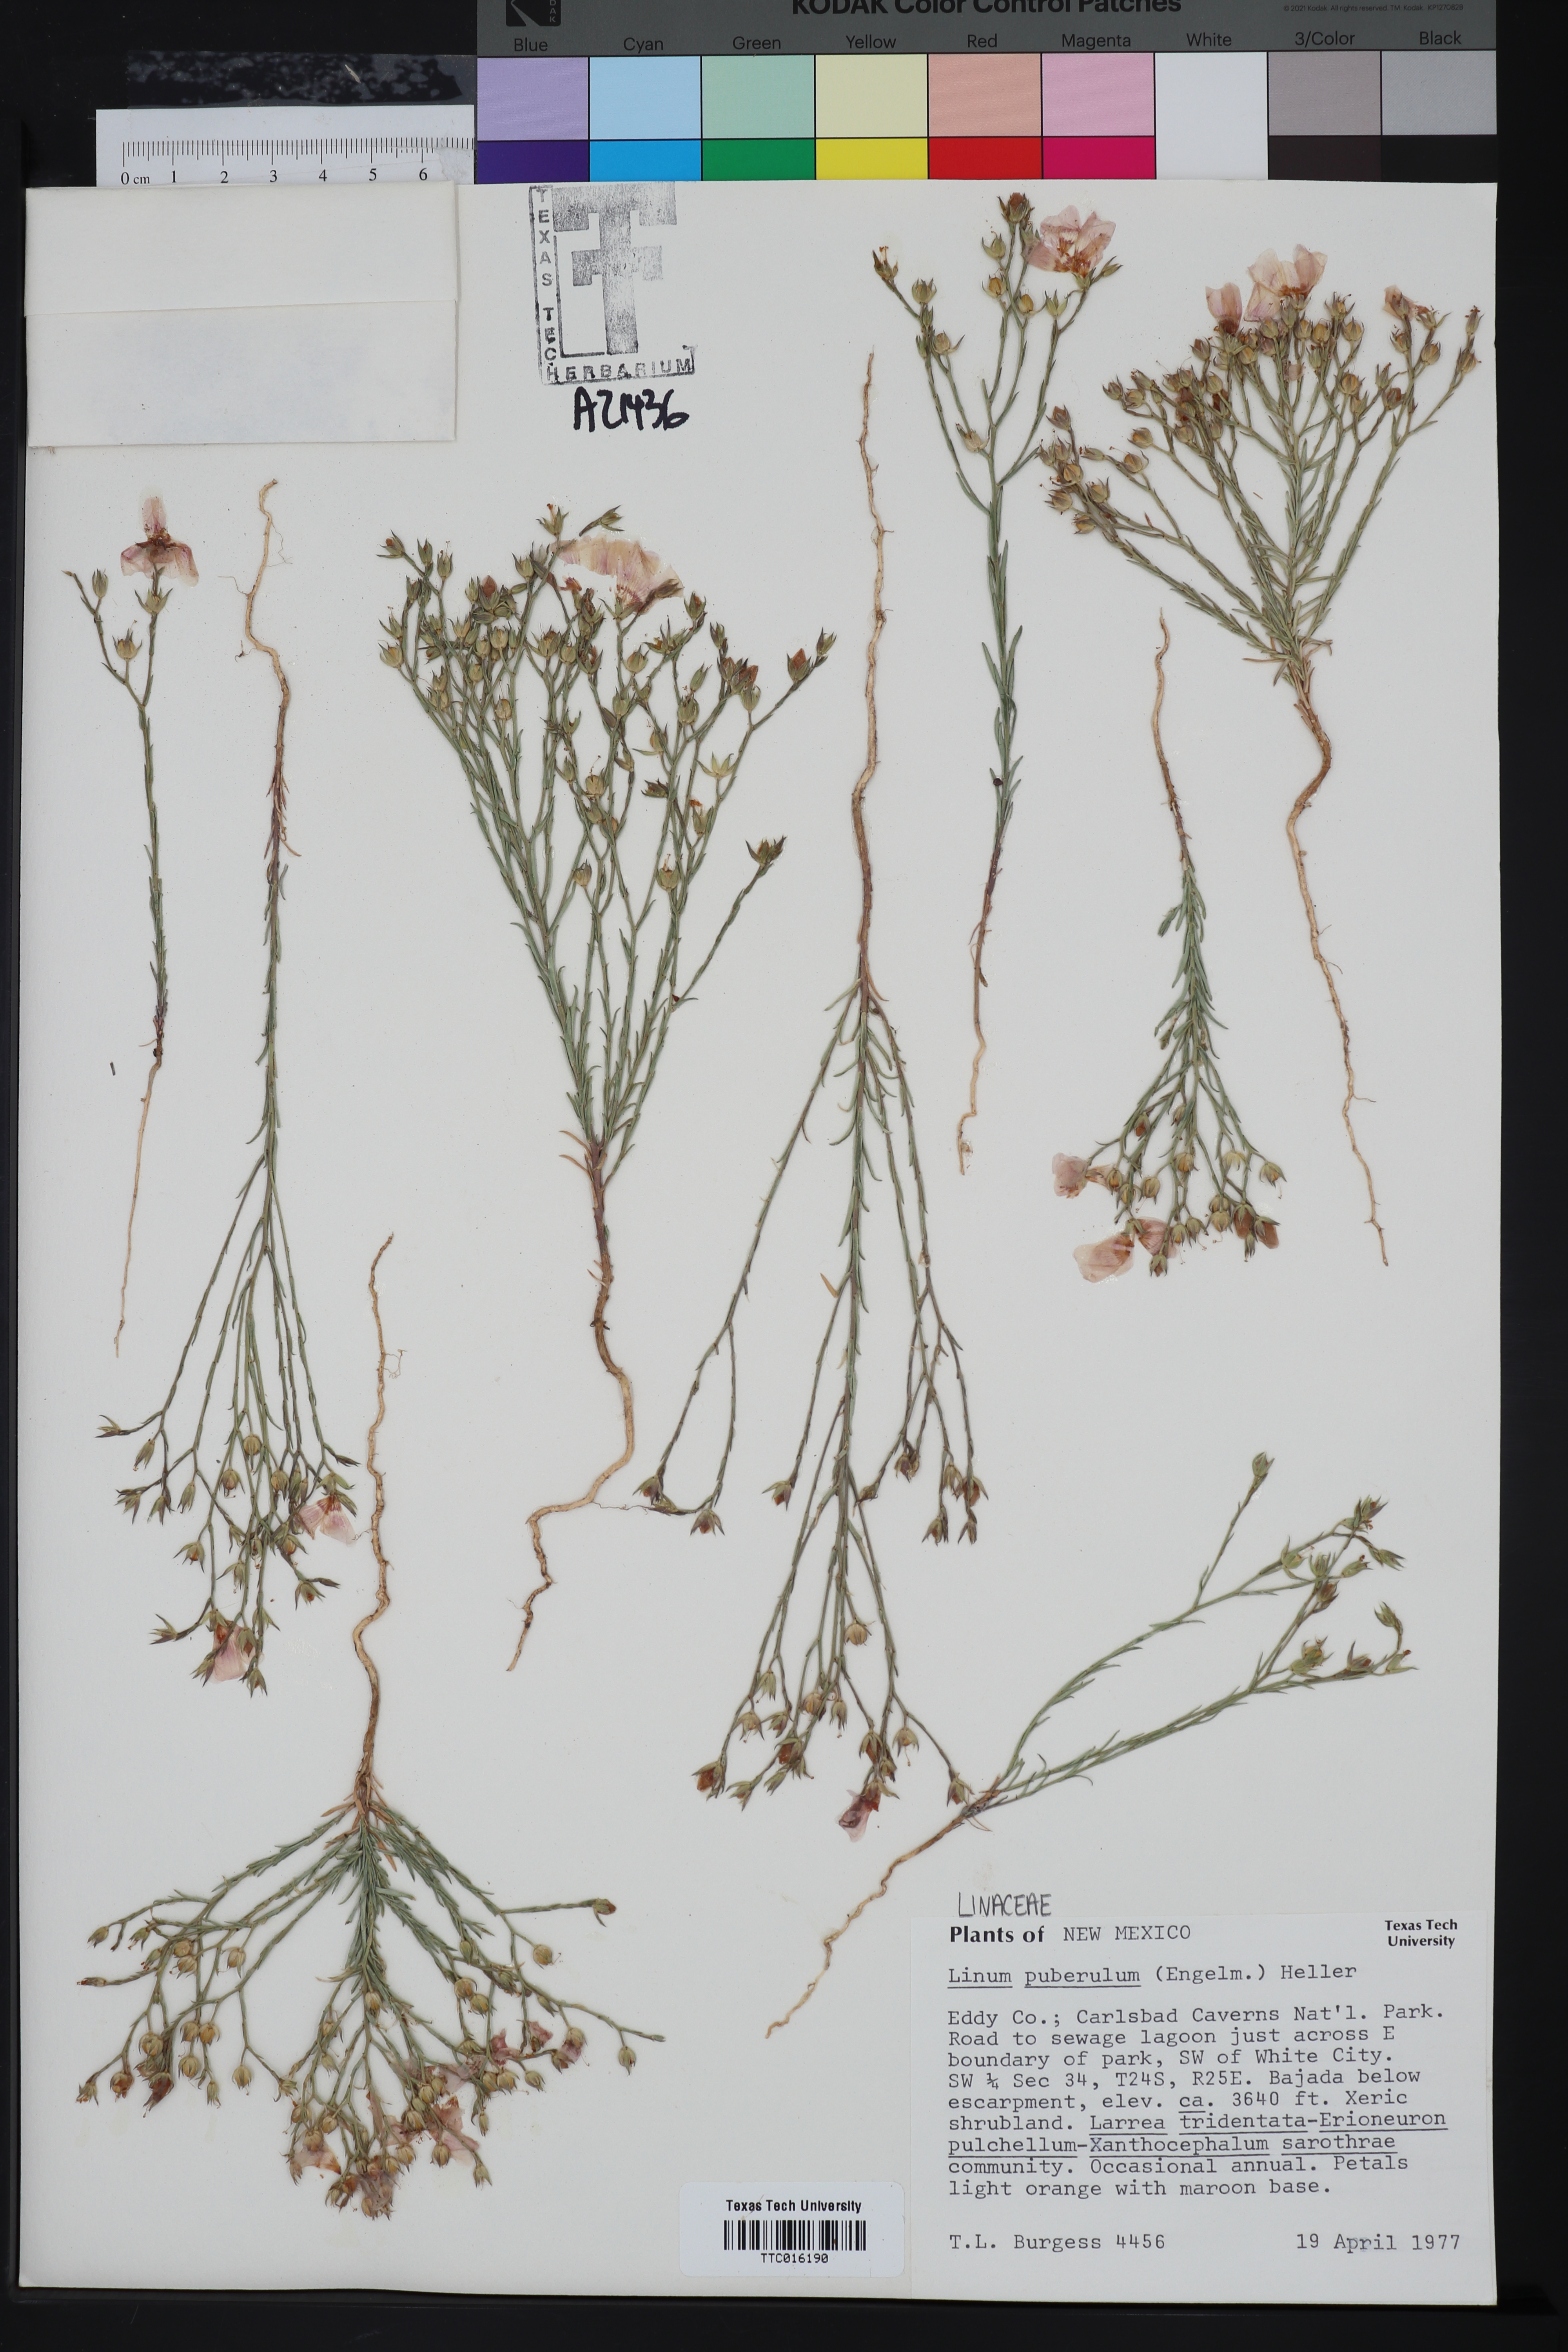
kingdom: Plantae
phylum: Tracheophyta
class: Magnoliopsida
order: Malpighiales
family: Linaceae
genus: Linum
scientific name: Linum puberulum
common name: Plains flax
